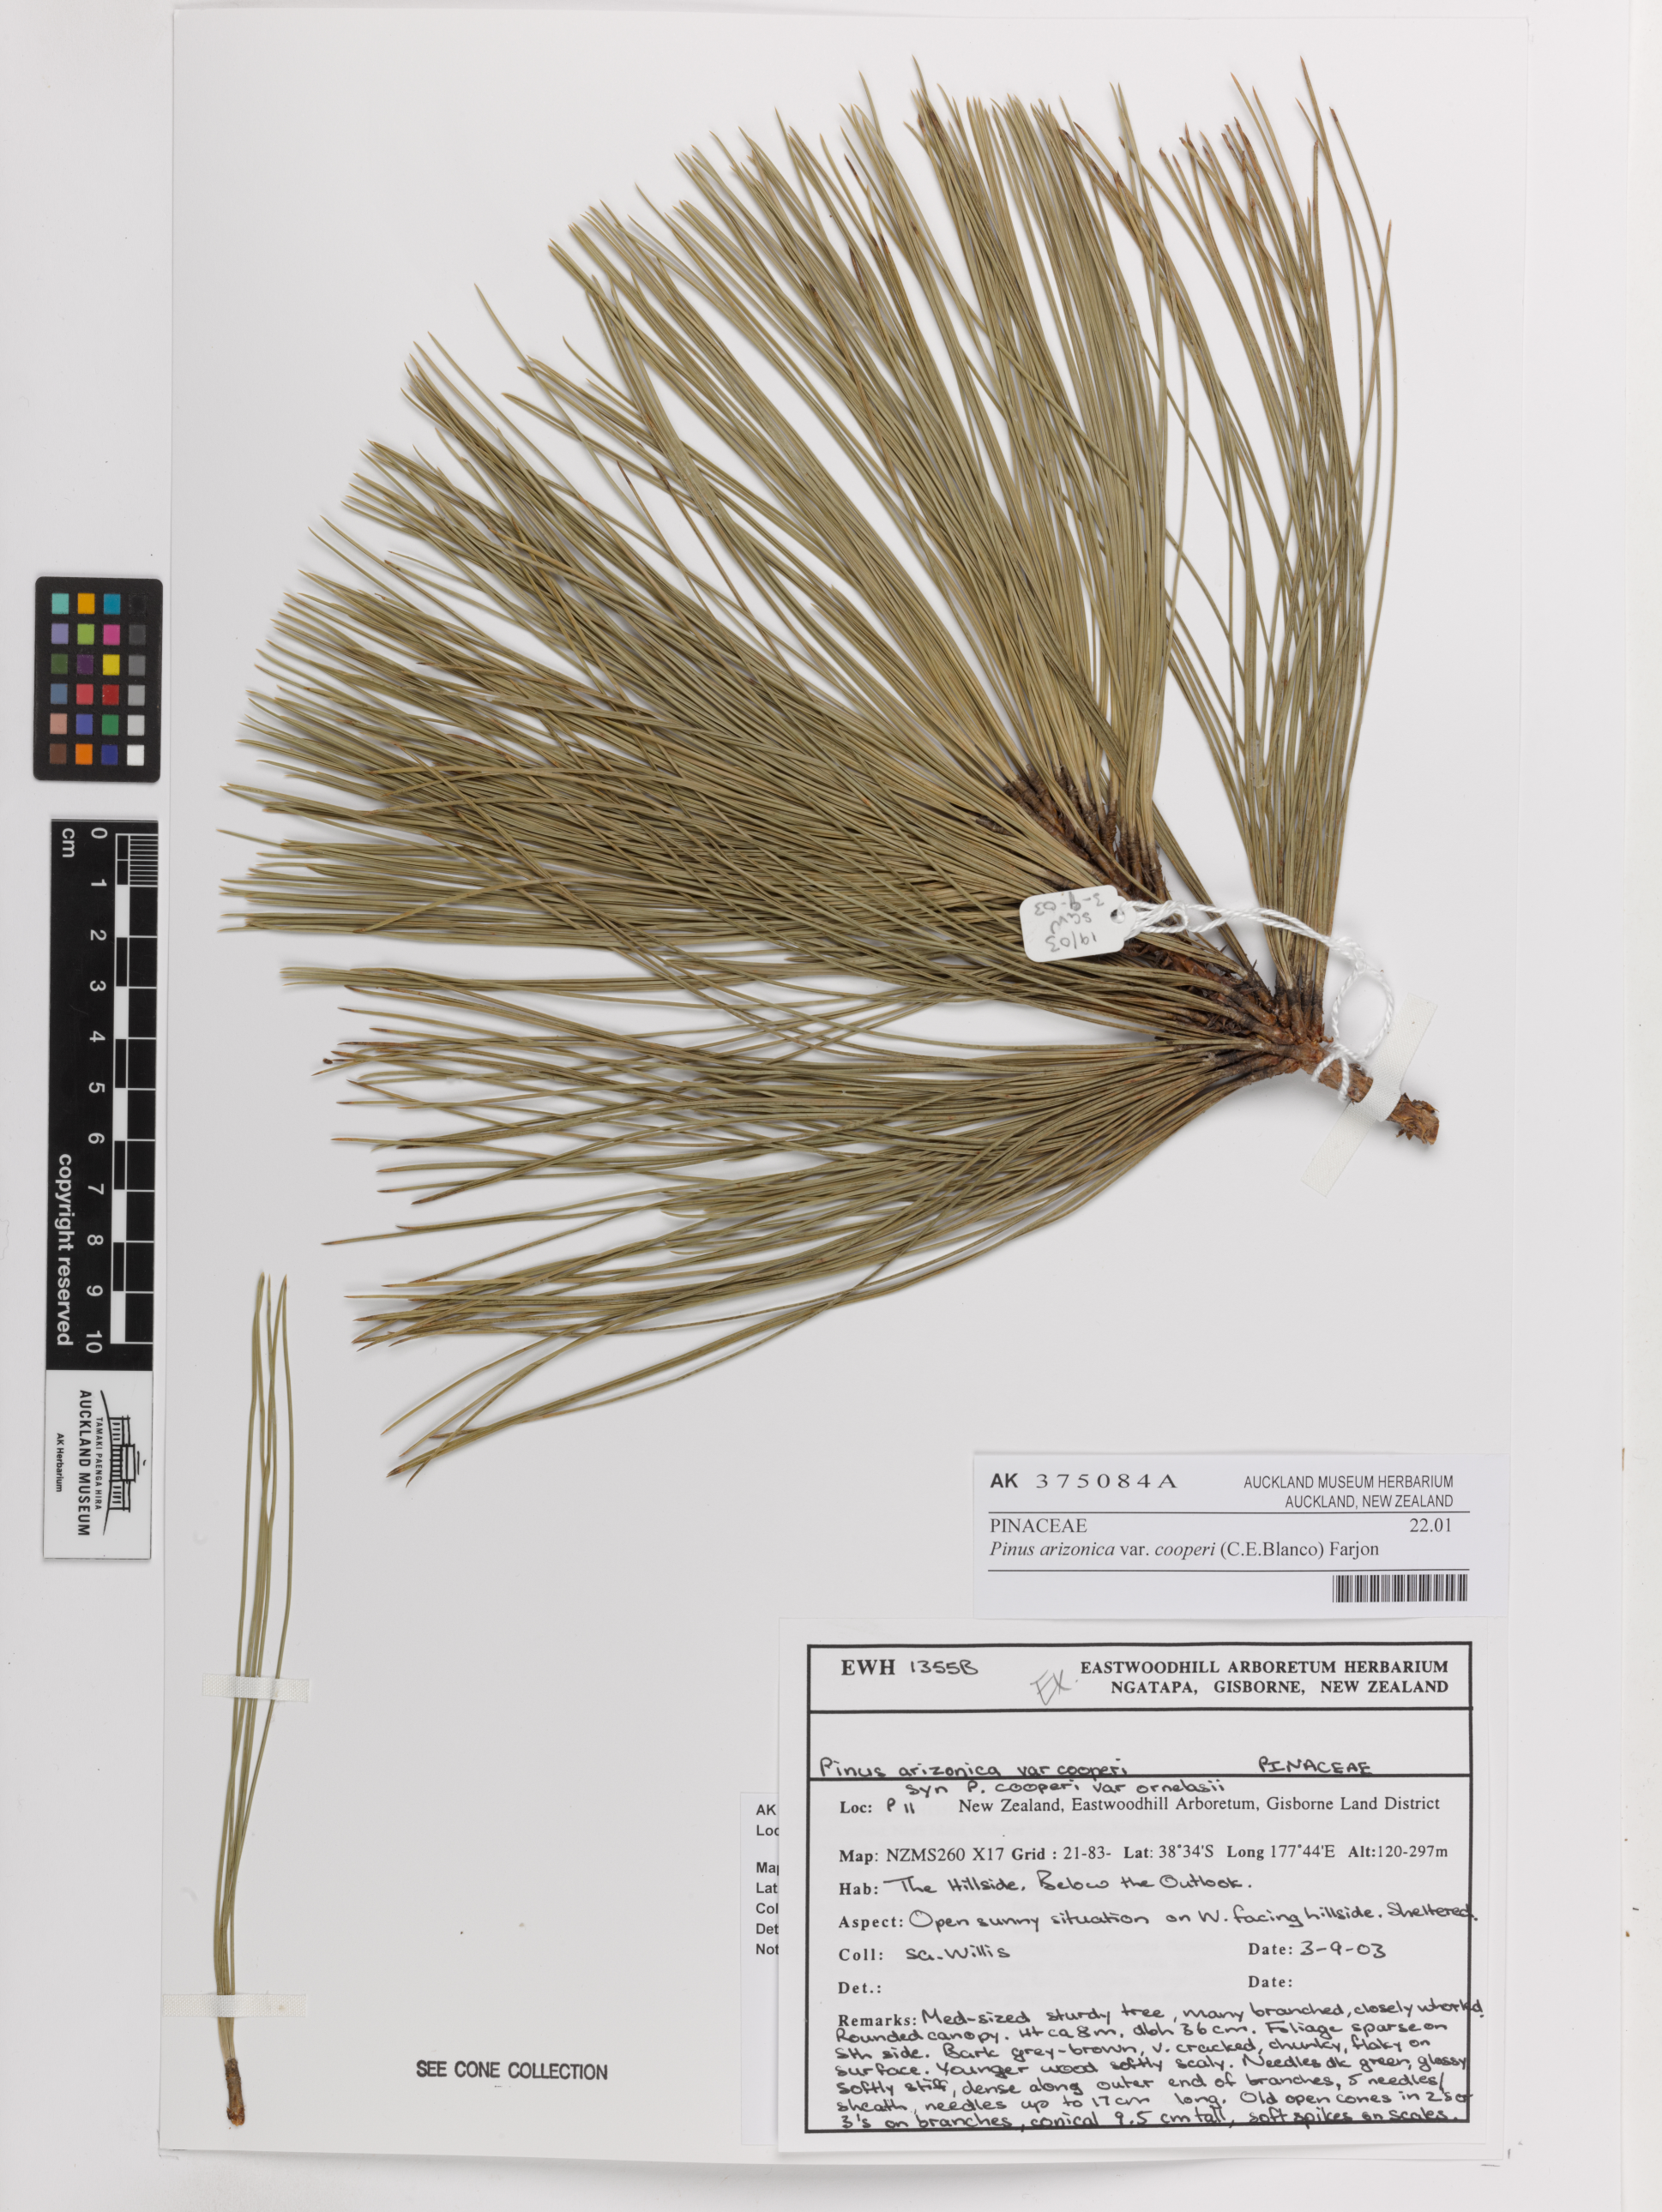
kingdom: Plantae
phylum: Tracheophyta
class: Pinopsida
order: Pinales
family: Pinaceae
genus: Pinus
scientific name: Pinus arizonica
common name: Arizona pine
